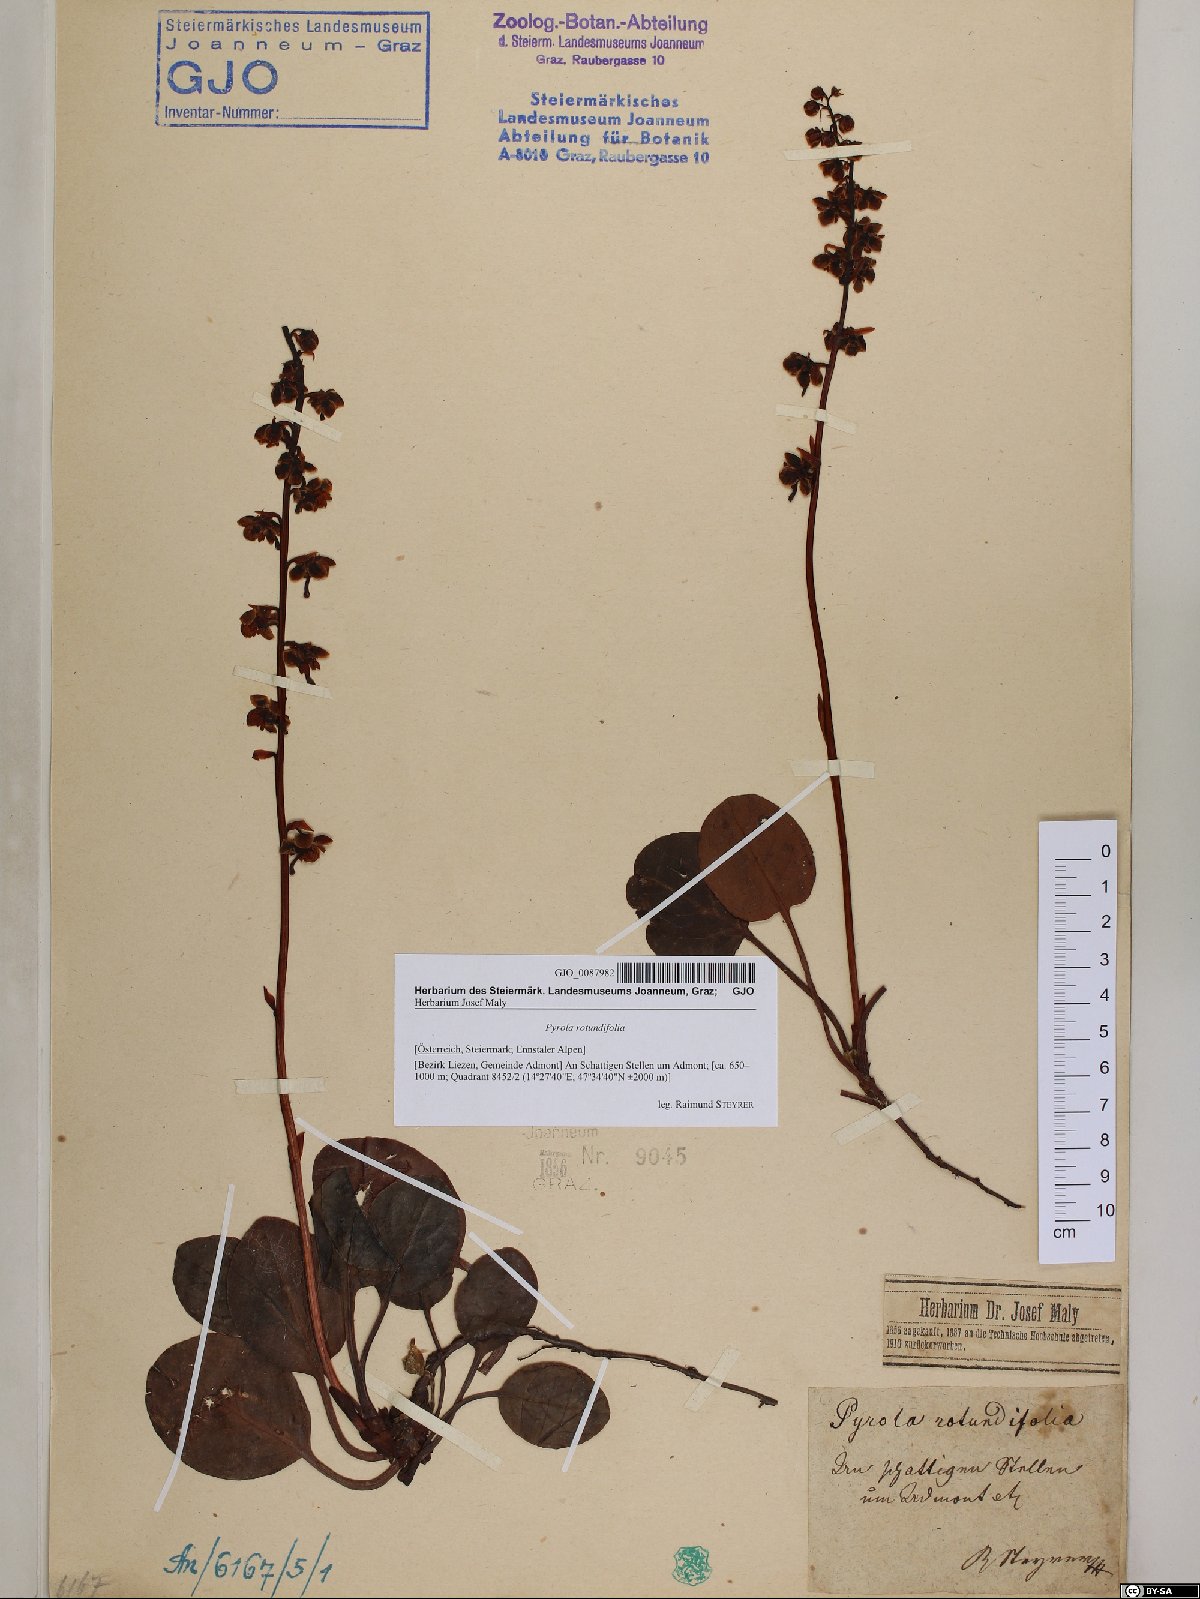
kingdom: Plantae
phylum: Tracheophyta
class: Magnoliopsida
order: Ericales
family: Ericaceae
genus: Pyrola
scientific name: Pyrola rotundifolia
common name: Round-leaved wintergreen
